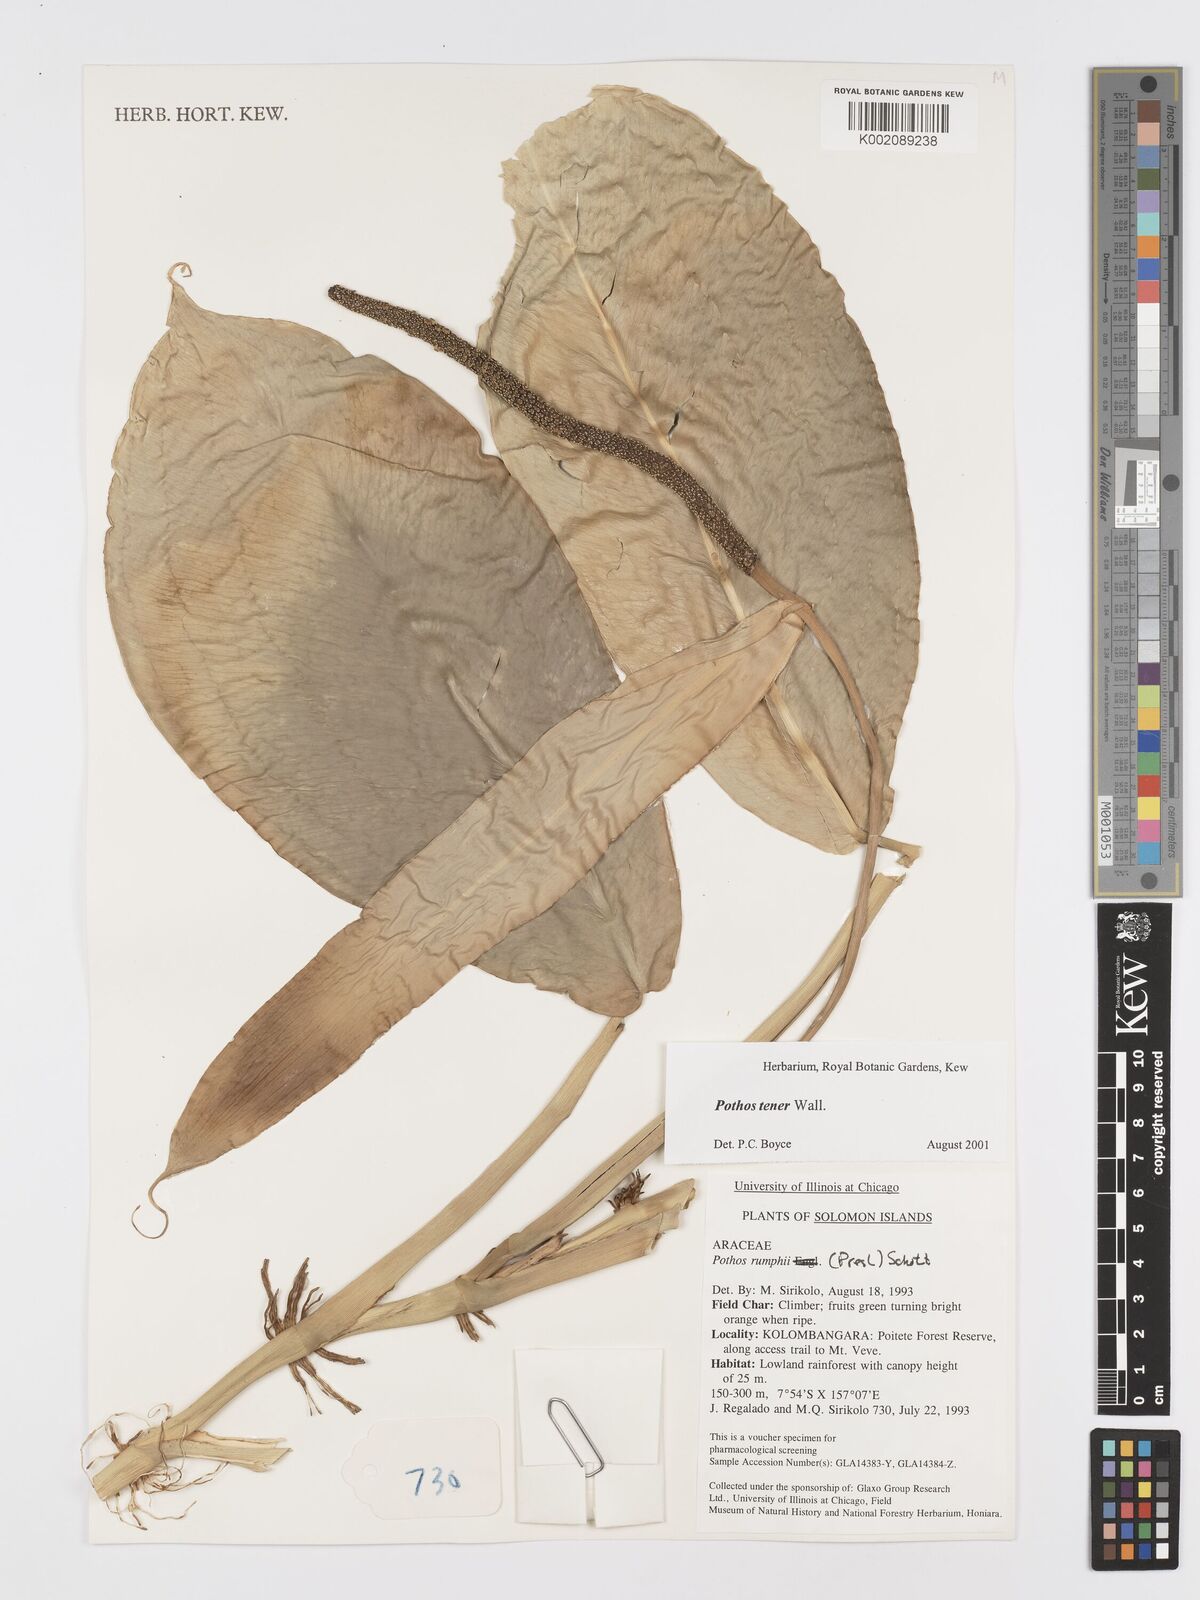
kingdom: Plantae
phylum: Tracheophyta
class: Liliopsida
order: Alismatales
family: Araceae
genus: Pothos
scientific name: Pothos tener
